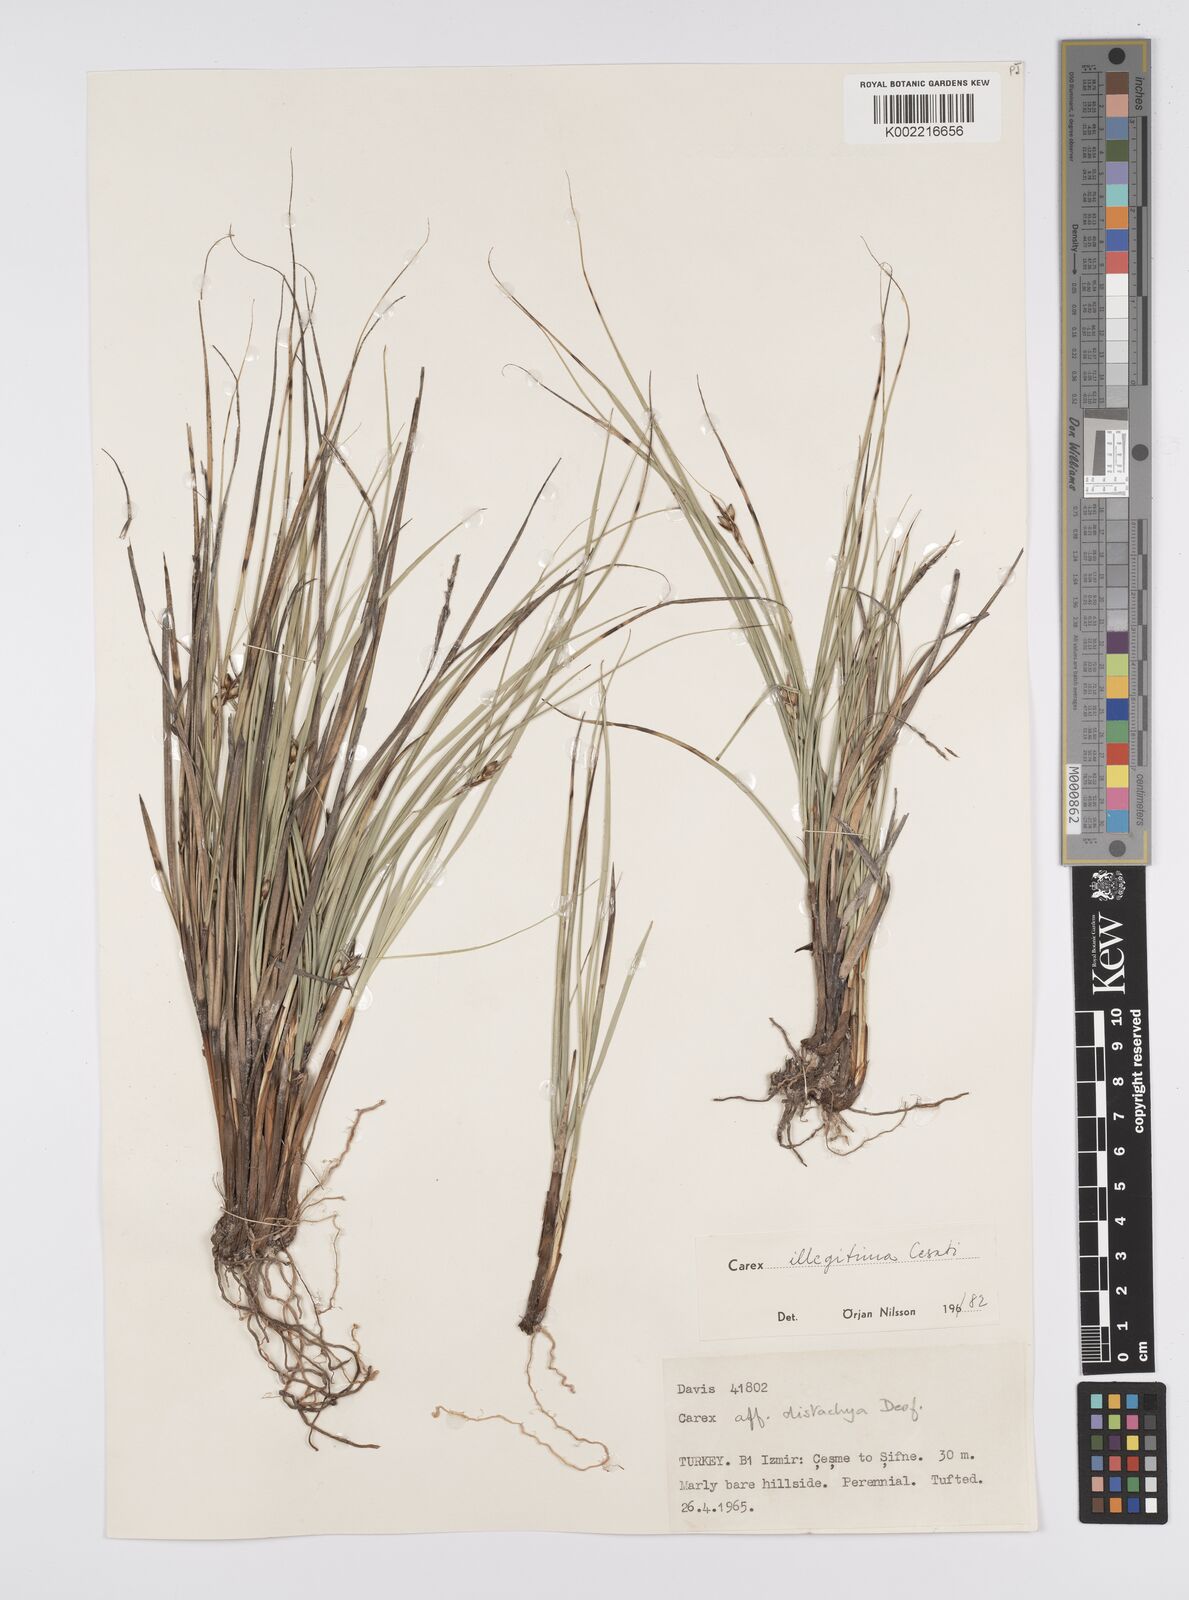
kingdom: Plantae
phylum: Tracheophyta
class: Liliopsida
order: Poales
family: Cyperaceae
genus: Carex
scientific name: Carex illegitima
